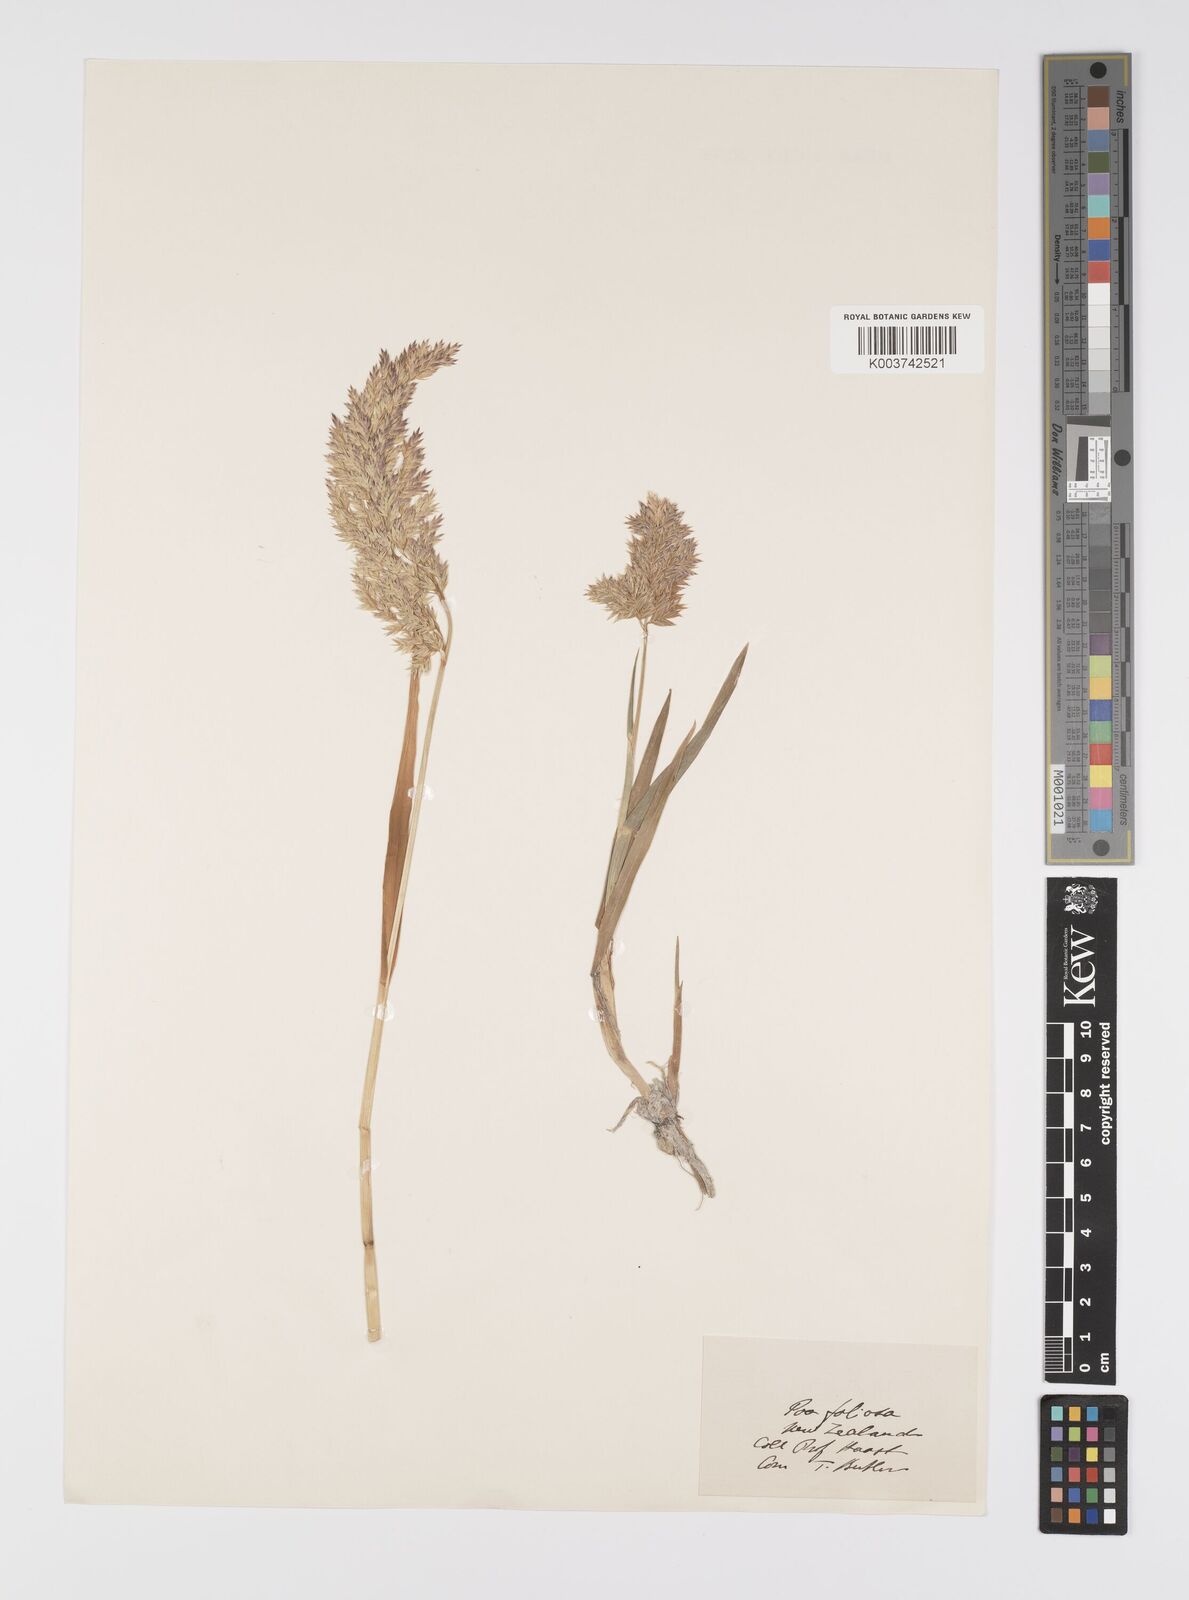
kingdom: Plantae
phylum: Tracheophyta
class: Liliopsida
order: Poales
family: Poaceae
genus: Poa
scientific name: Poa foliosa
